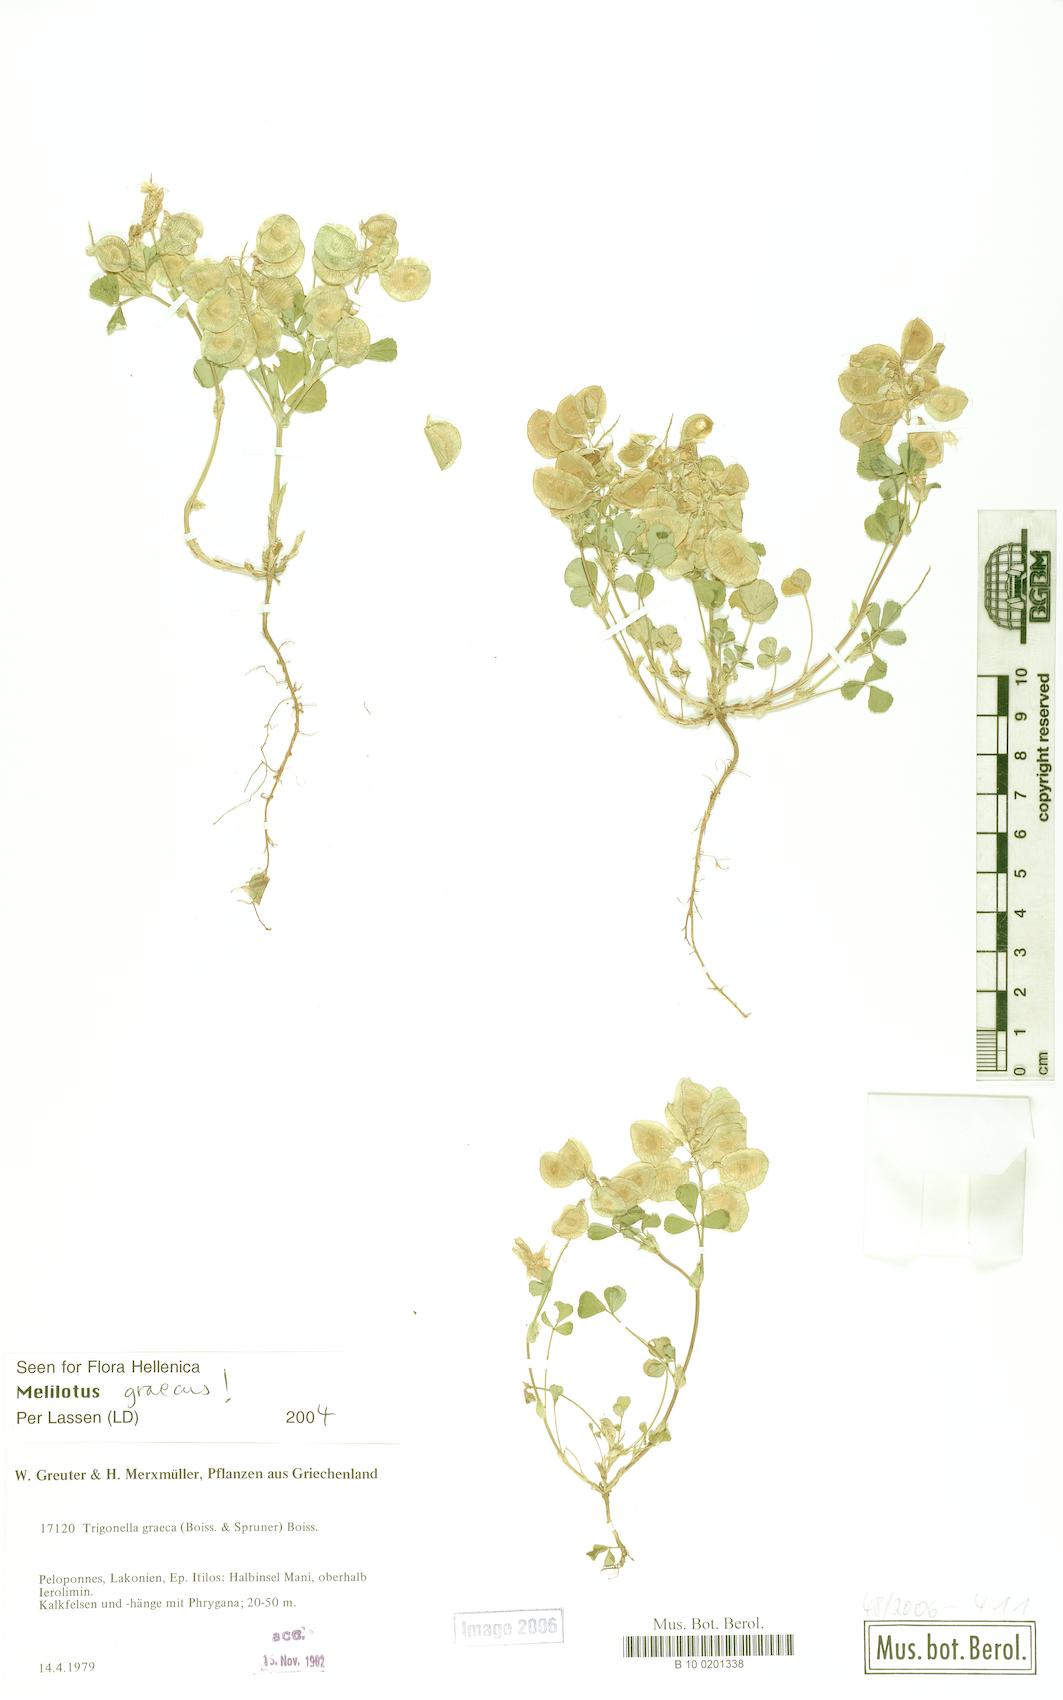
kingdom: Plantae
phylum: Tracheophyta
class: Magnoliopsida
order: Fabales
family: Fabaceae
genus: Trigonella
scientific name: Trigonella graeca
